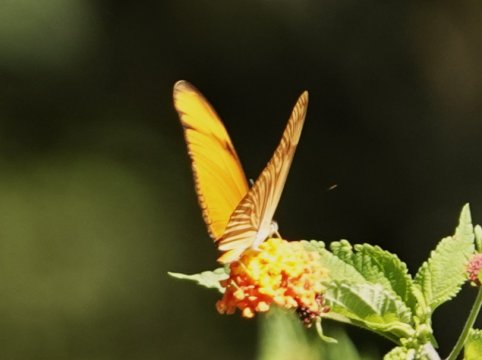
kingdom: Animalia
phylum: Arthropoda
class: Insecta
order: Lepidoptera
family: Nymphalidae
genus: Dryas
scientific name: Dryas iulia
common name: Julia
